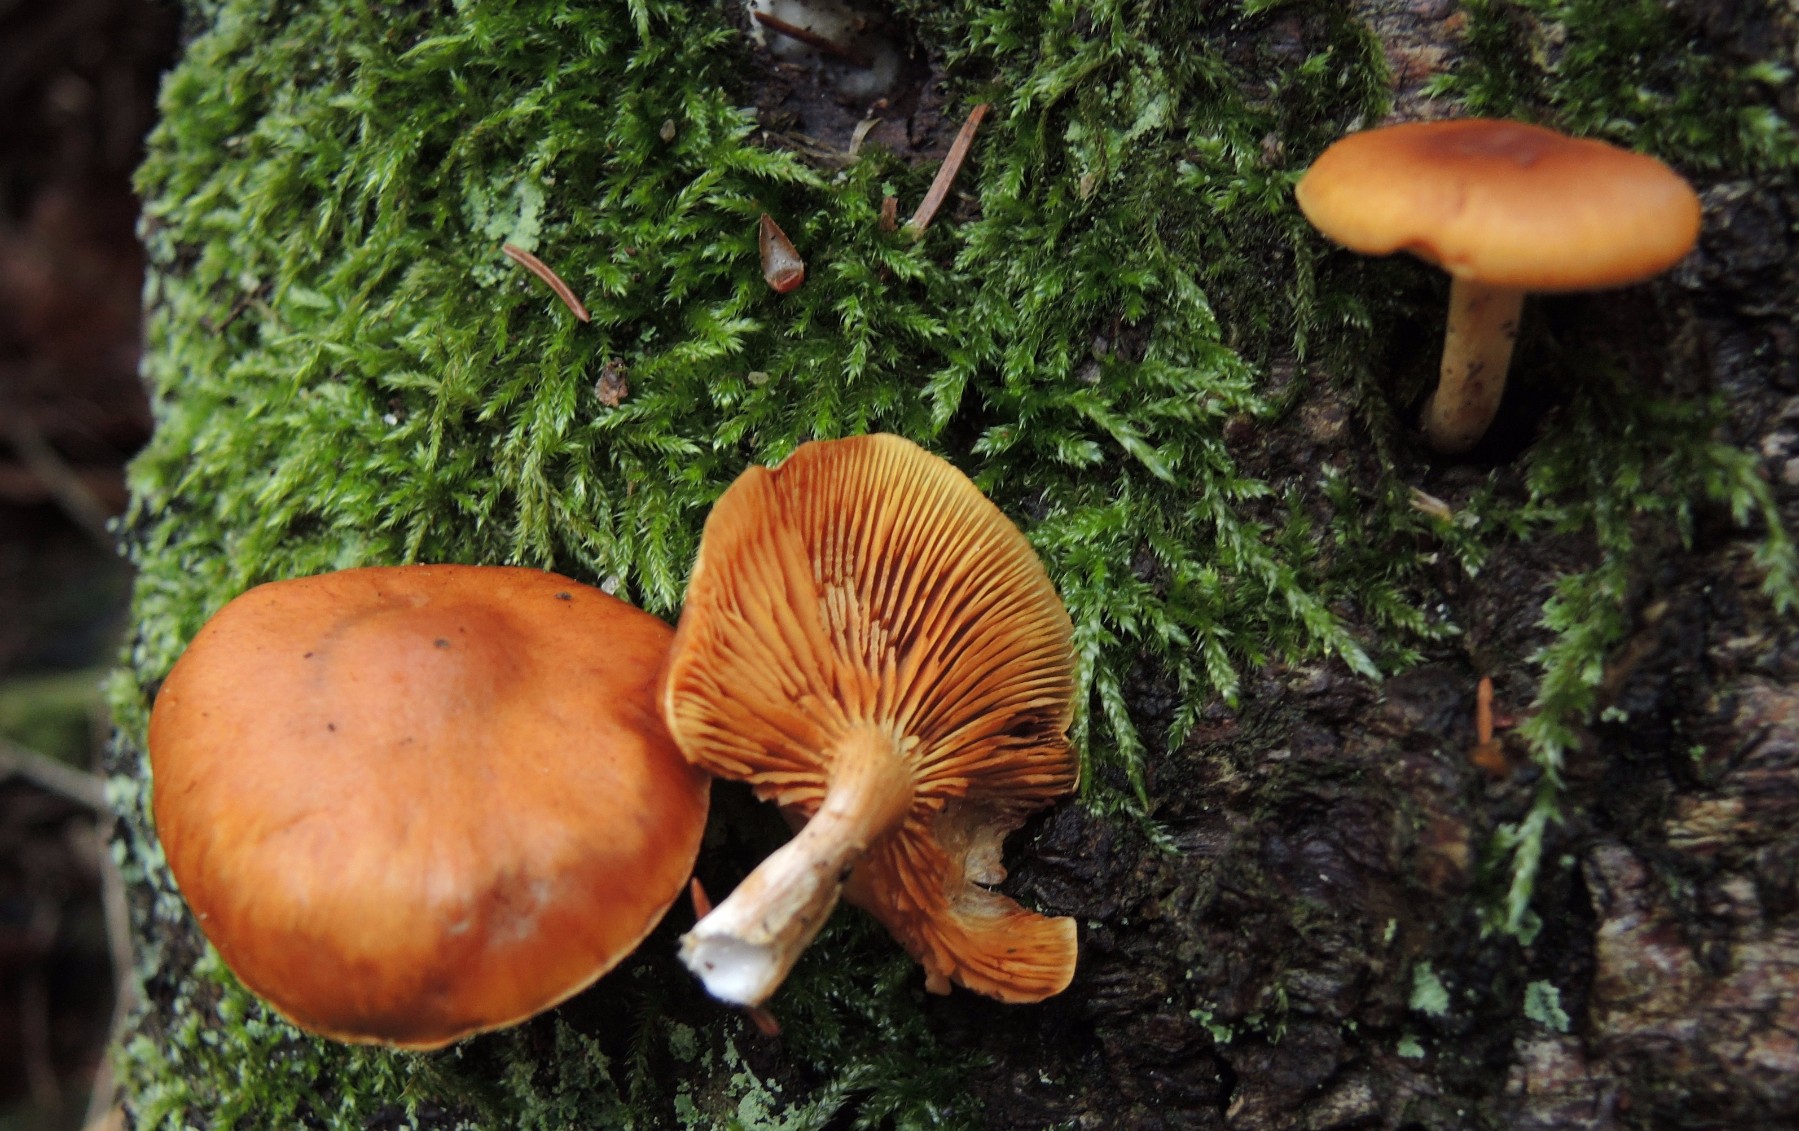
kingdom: Fungi
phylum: Basidiomycota
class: Agaricomycetes
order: Agaricales
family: Hymenogastraceae
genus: Gymnopilus
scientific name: Gymnopilus penetrans
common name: plettet flammehat
